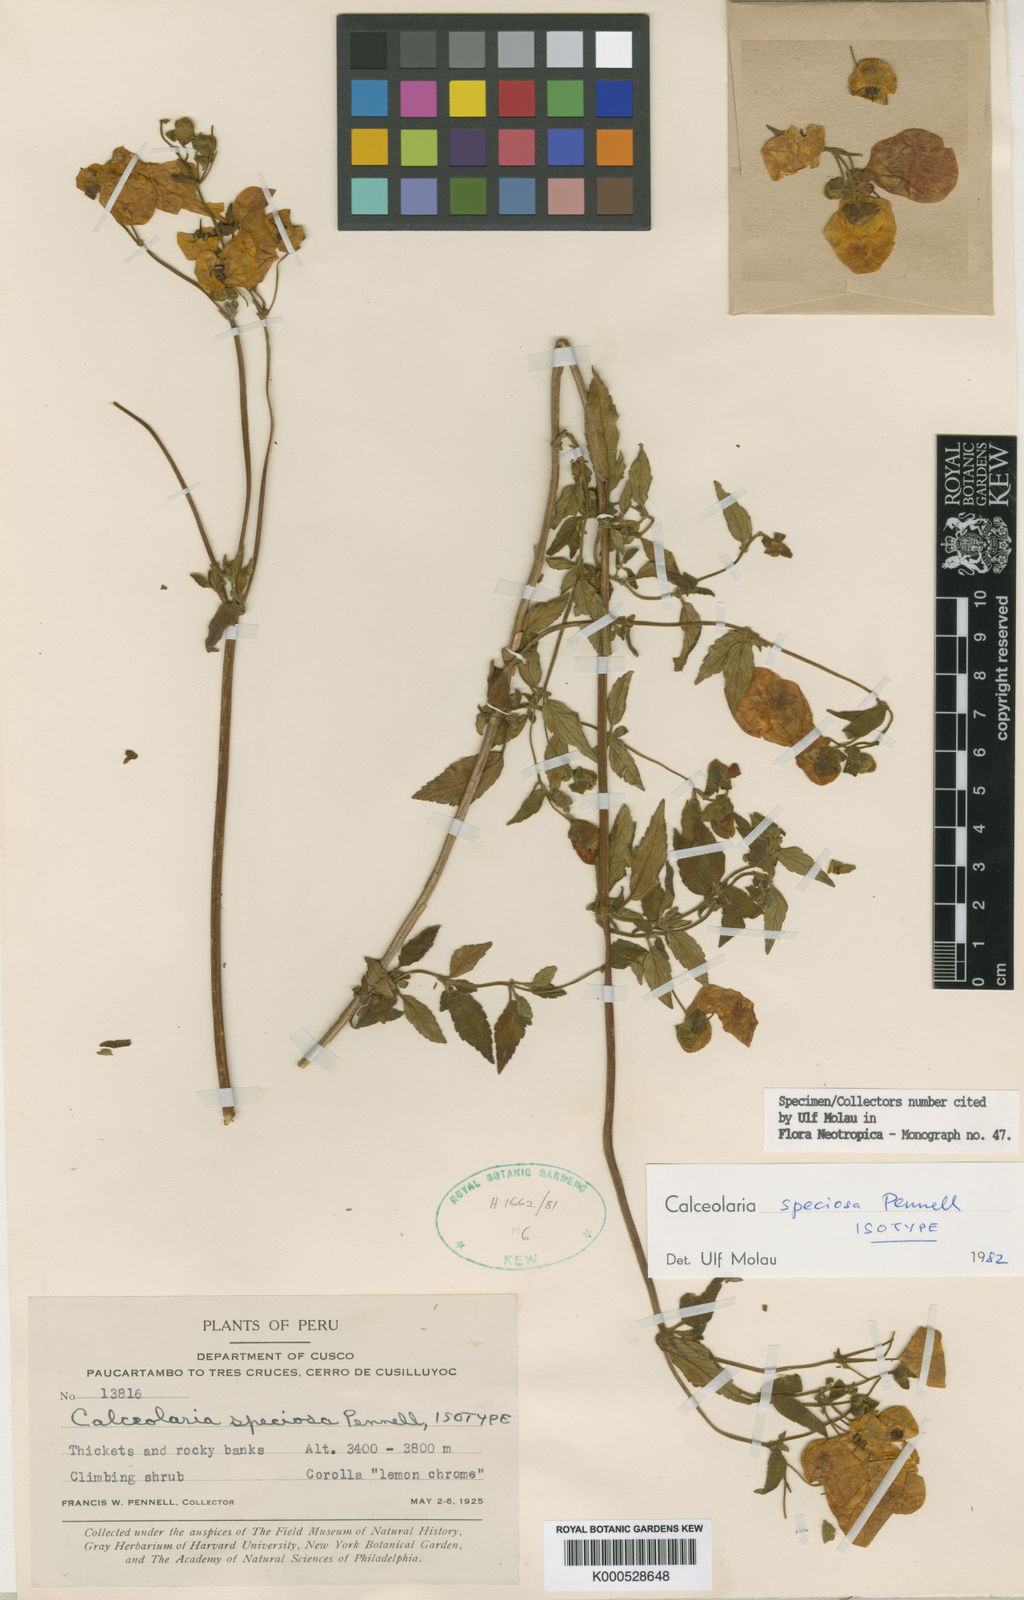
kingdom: Plantae
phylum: Tracheophyta
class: Magnoliopsida
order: Lamiales
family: Calceolariaceae
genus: Calceolaria
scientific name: Calceolaria speciosa
